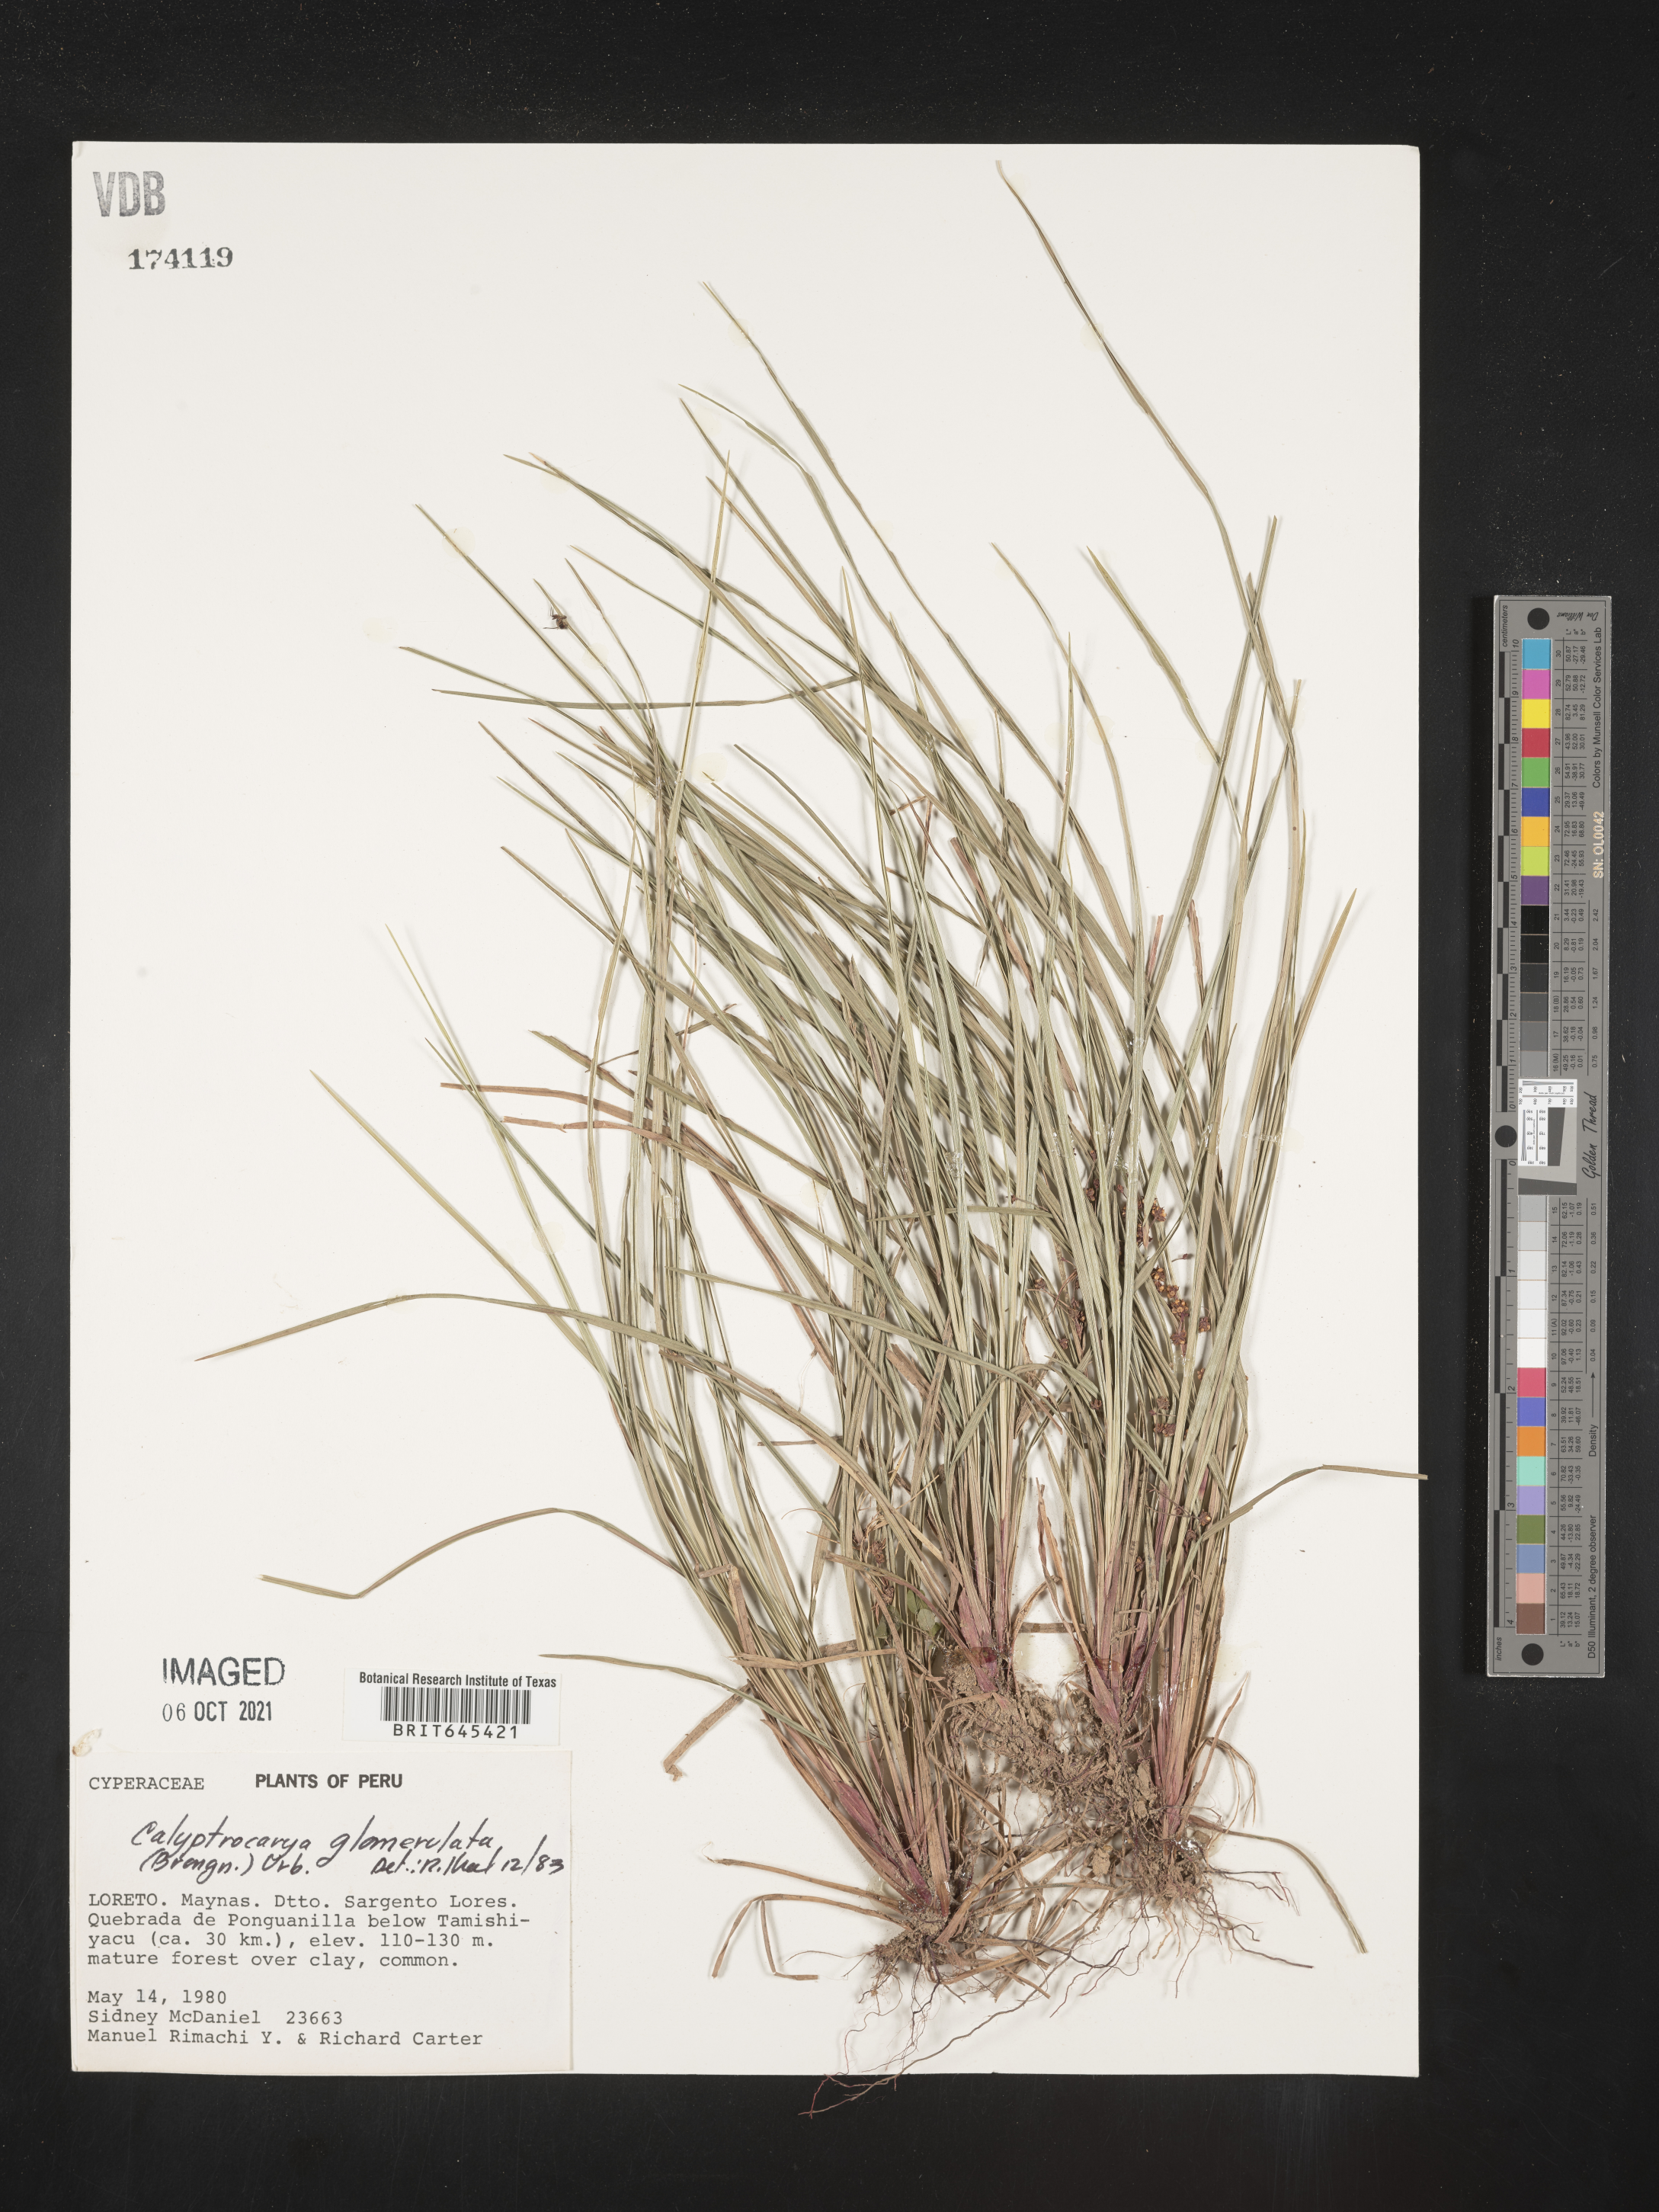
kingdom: Plantae
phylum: Tracheophyta
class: Liliopsida
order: Poales
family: Cyperaceae
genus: Calyptrocarya
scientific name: Calyptrocarya glomerulata
